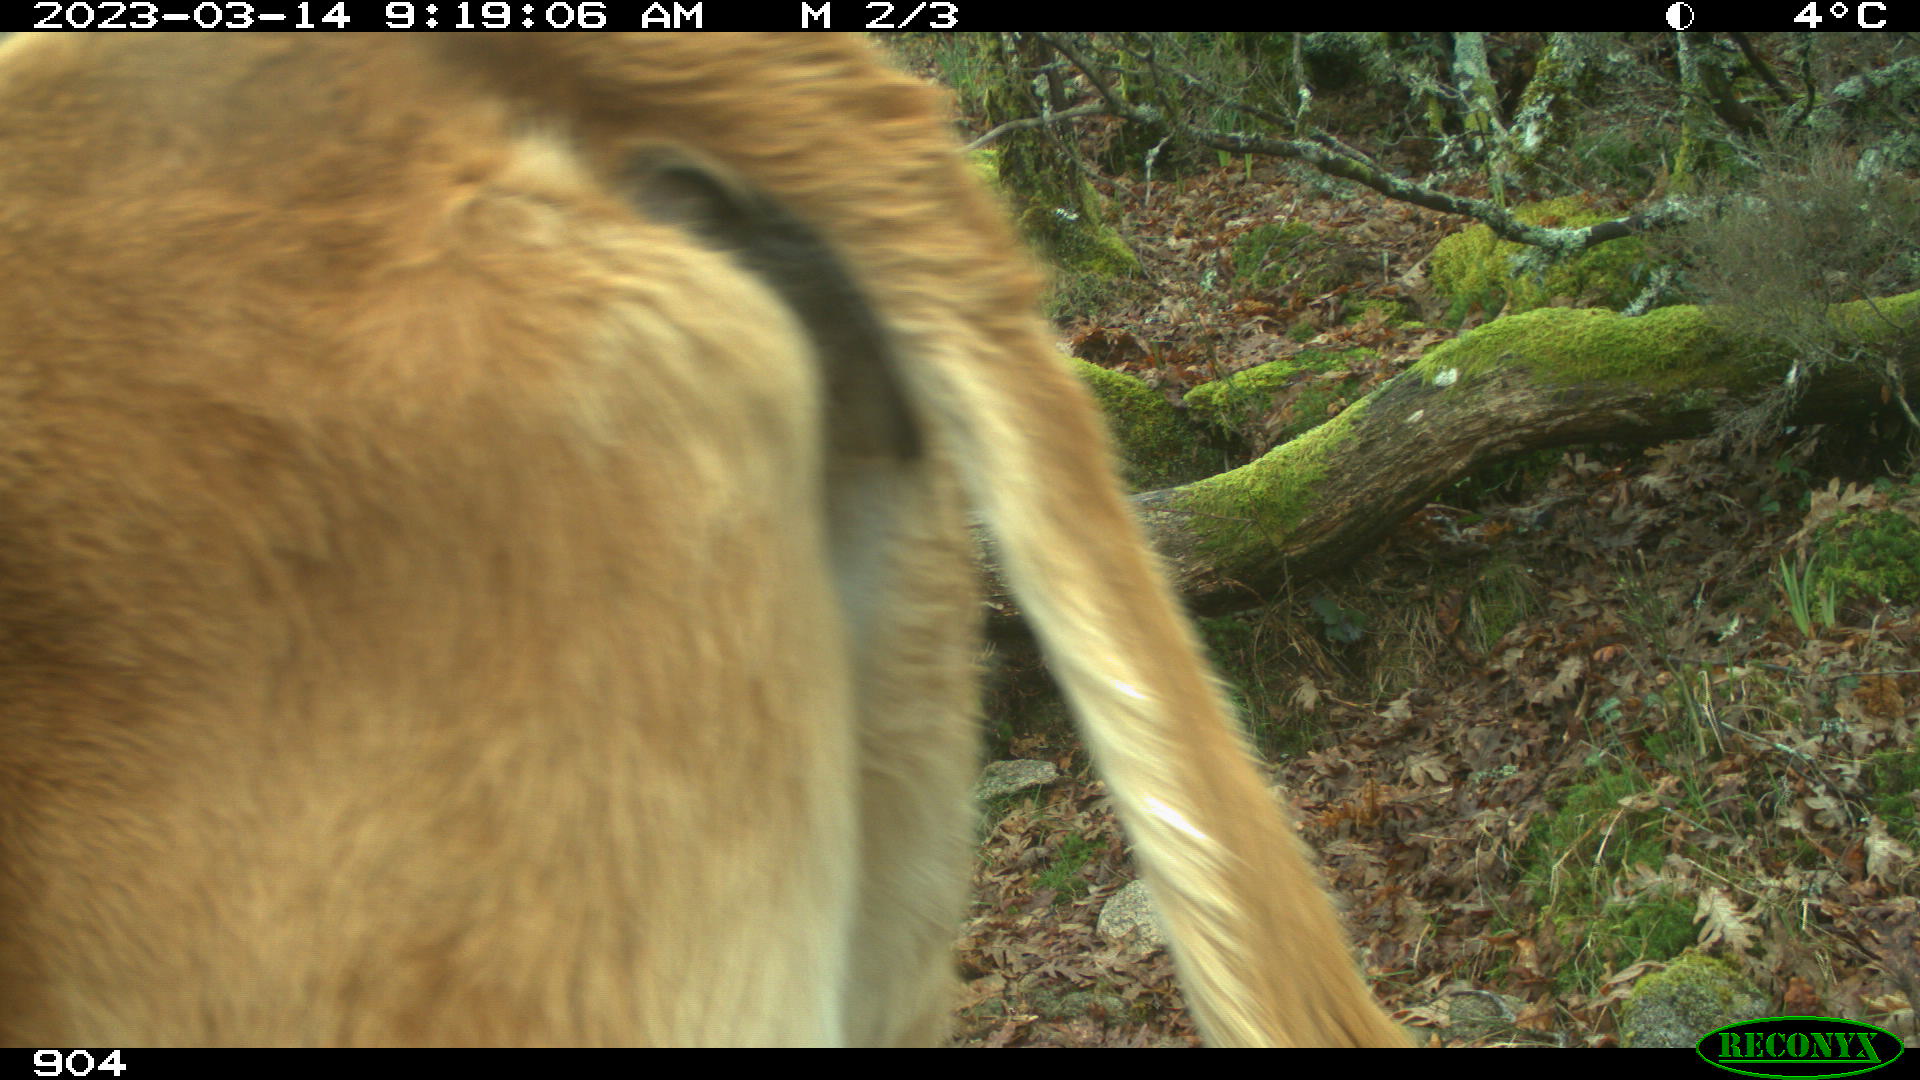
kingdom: Animalia
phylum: Chordata
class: Mammalia
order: Artiodactyla
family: Bovidae
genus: Bos
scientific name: Bos taurus
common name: Domesticated cattle
